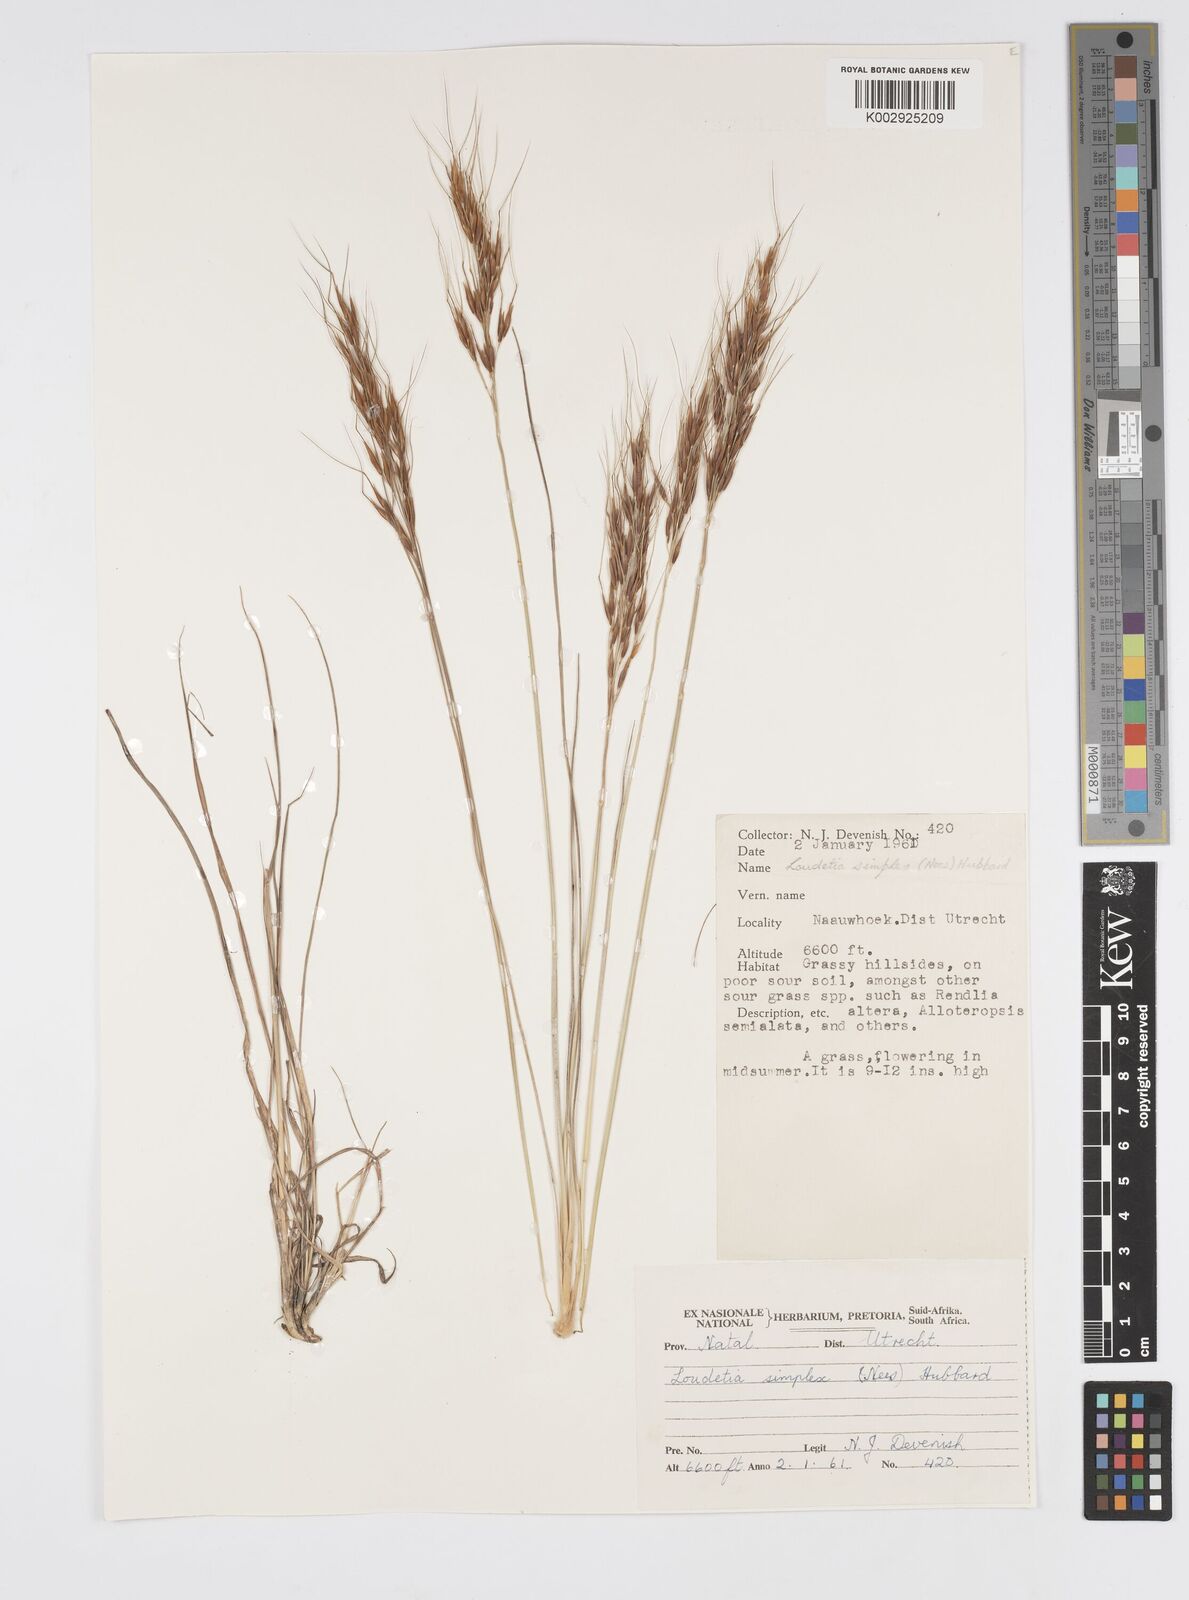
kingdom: Plantae
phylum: Tracheophyta
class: Liliopsida
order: Poales
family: Poaceae
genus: Loudetia
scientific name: Loudetia simplex
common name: Common russet grass
